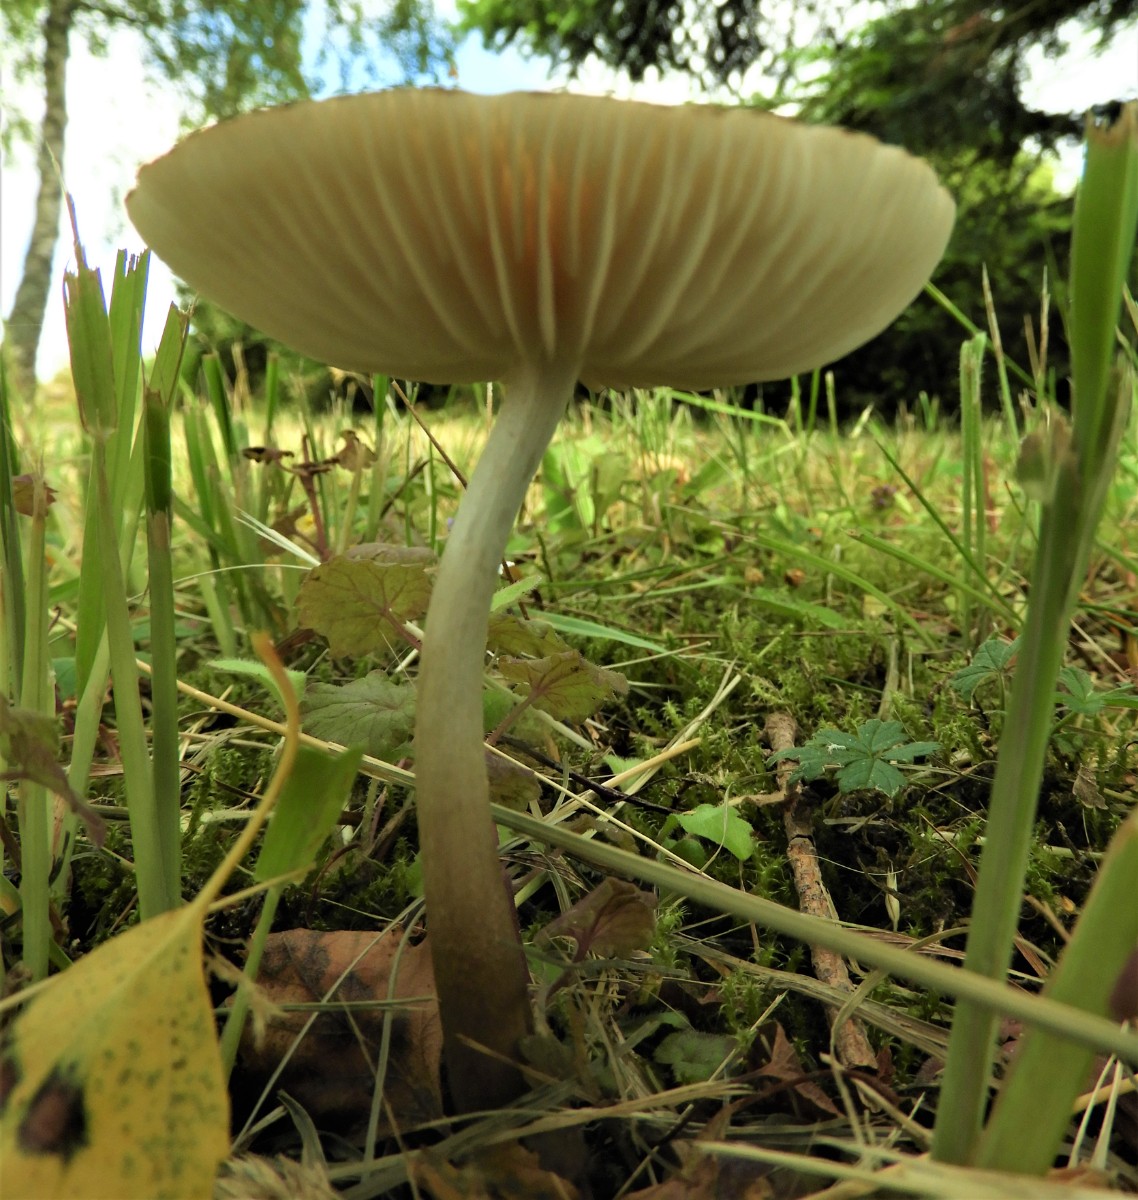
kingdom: Fungi
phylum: Basidiomycota
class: Agaricomycetes
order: Agaricales
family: Physalacriaceae
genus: Hymenopellis
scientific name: Hymenopellis radicata
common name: almindelig pælerodshat
